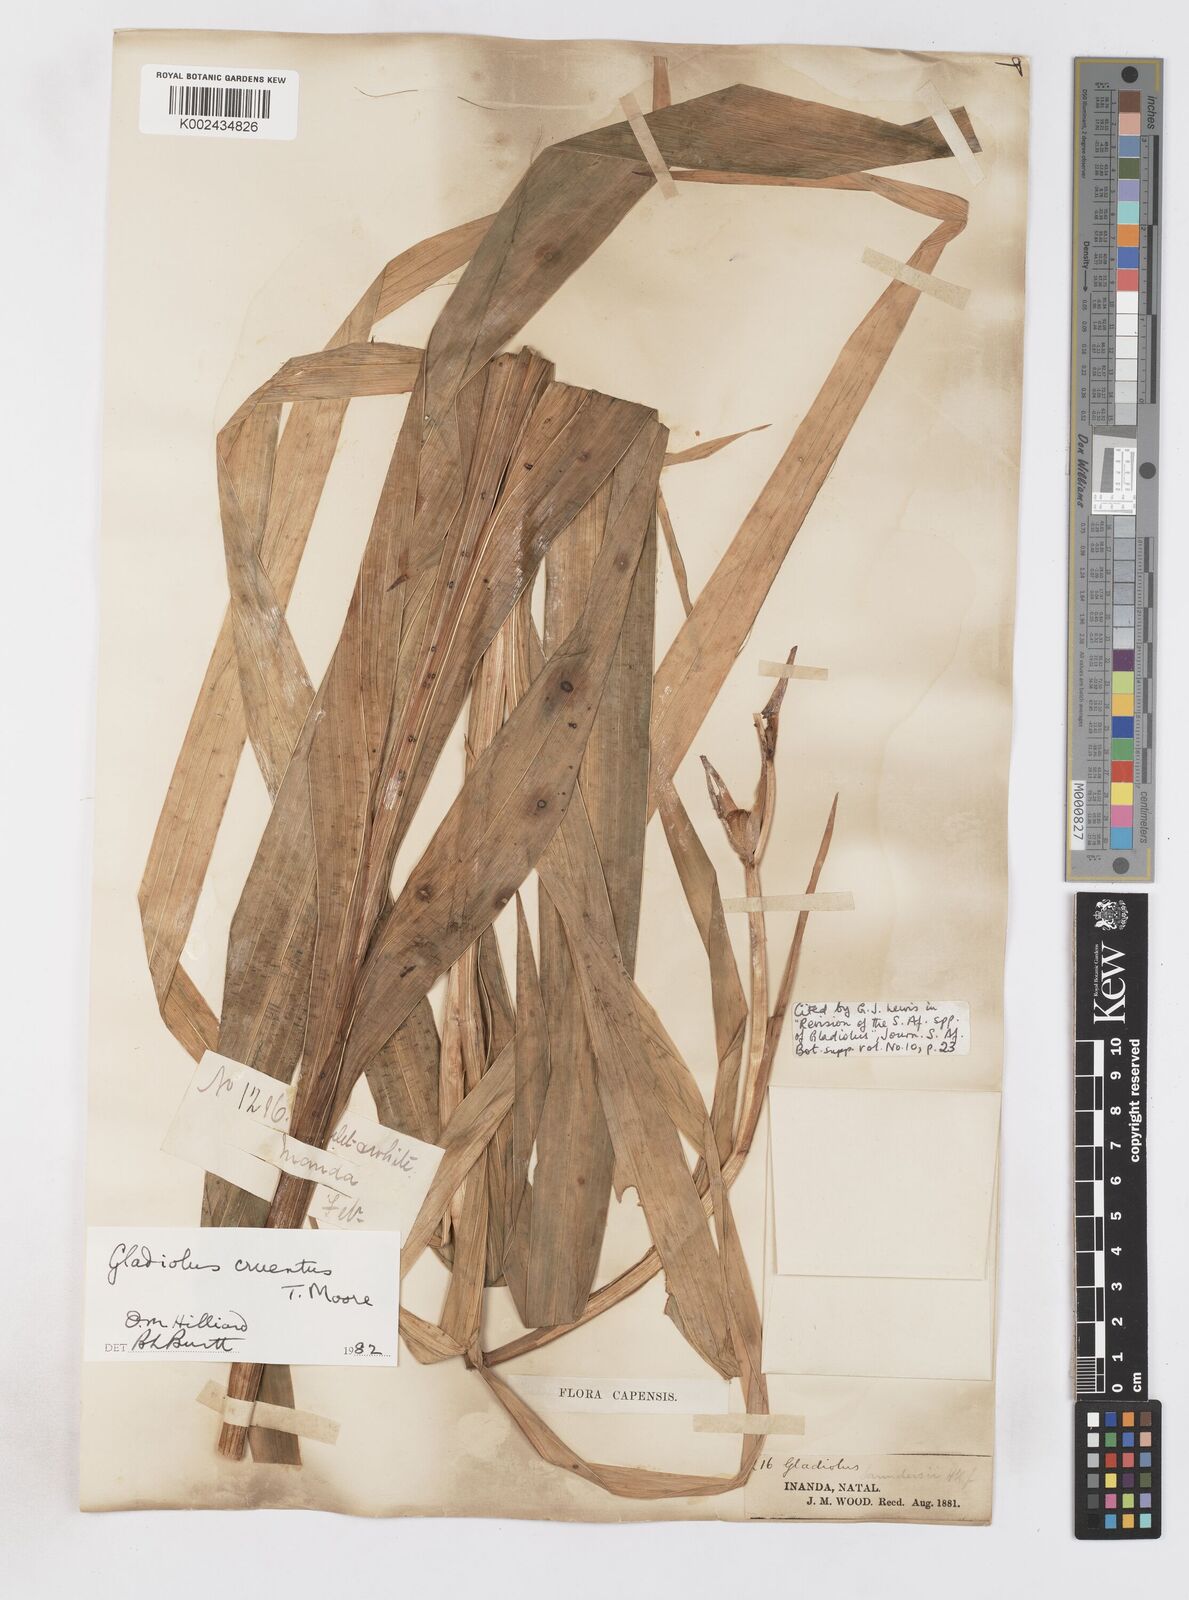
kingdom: Plantae
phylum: Tracheophyta
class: Liliopsida
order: Asparagales
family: Iridaceae
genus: Gladiolus
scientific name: Gladiolus cruentus
